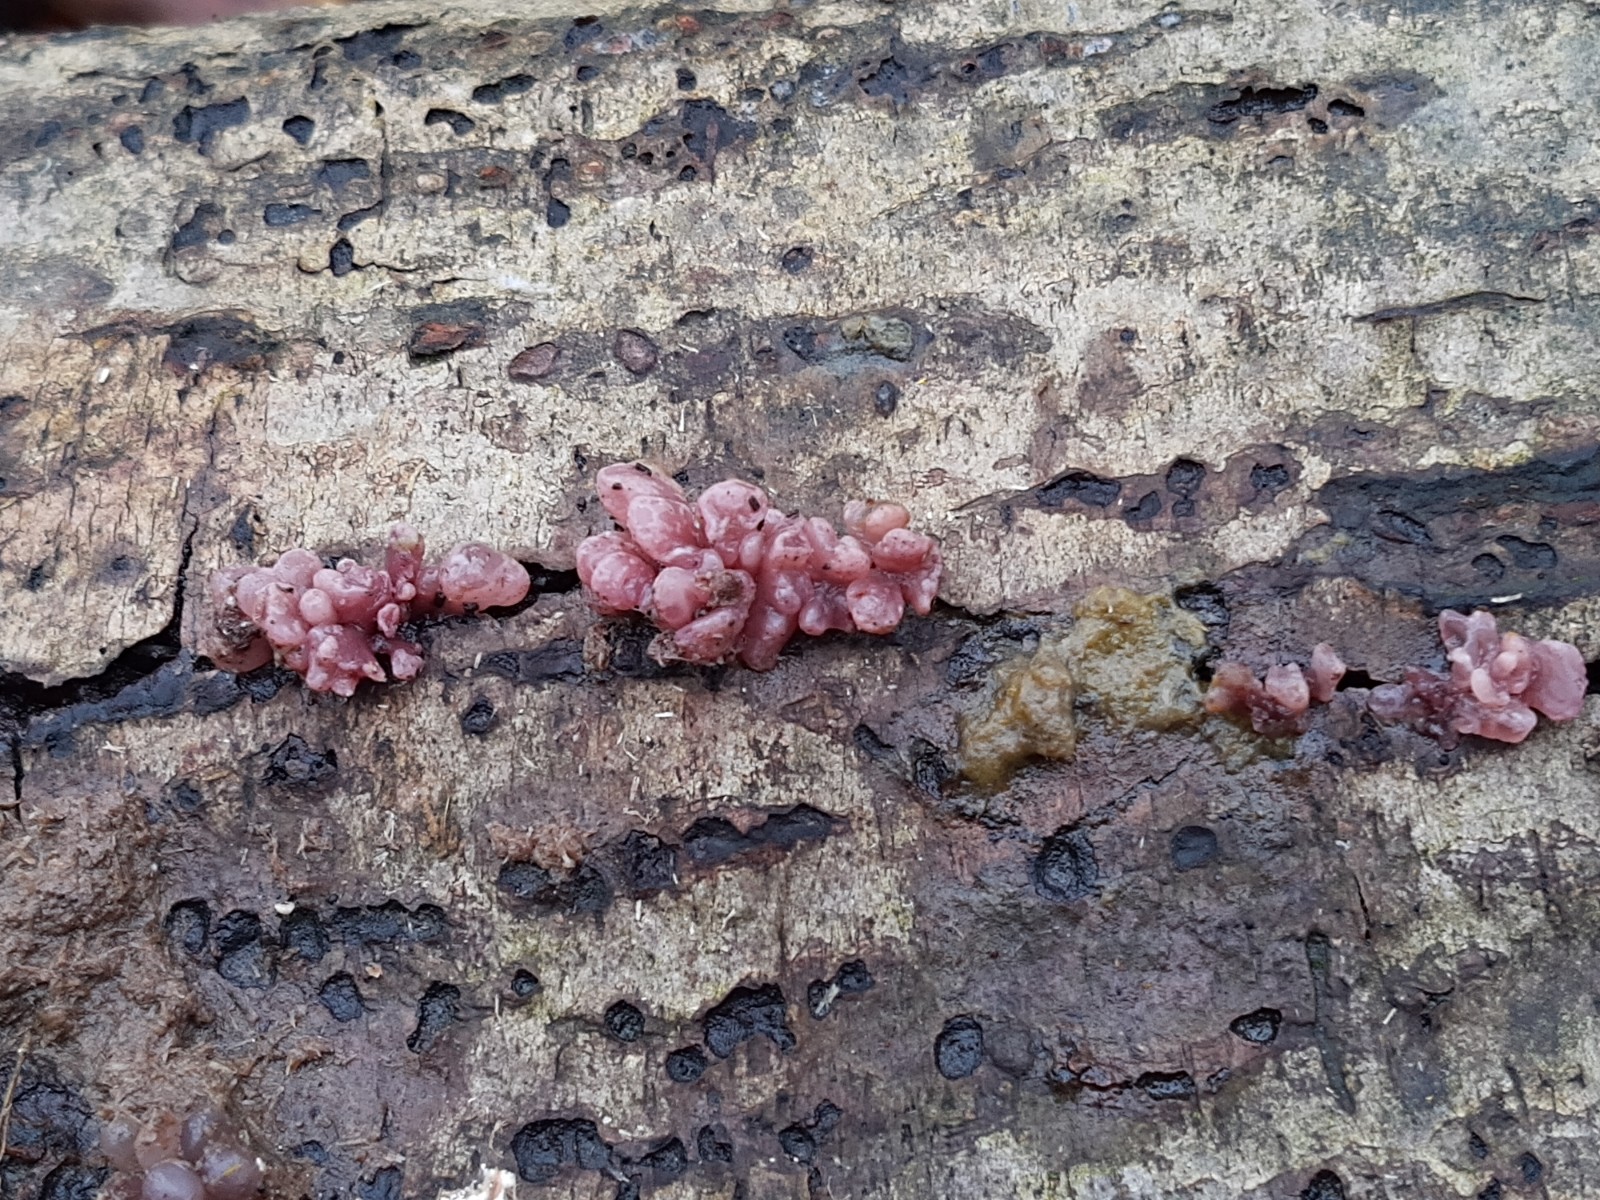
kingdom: Fungi
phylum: Ascomycota
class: Leotiomycetes
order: Helotiales
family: Gelatinodiscaceae
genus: Ascocoryne
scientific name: Ascocoryne sarcoides
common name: rødlilla sejskive
